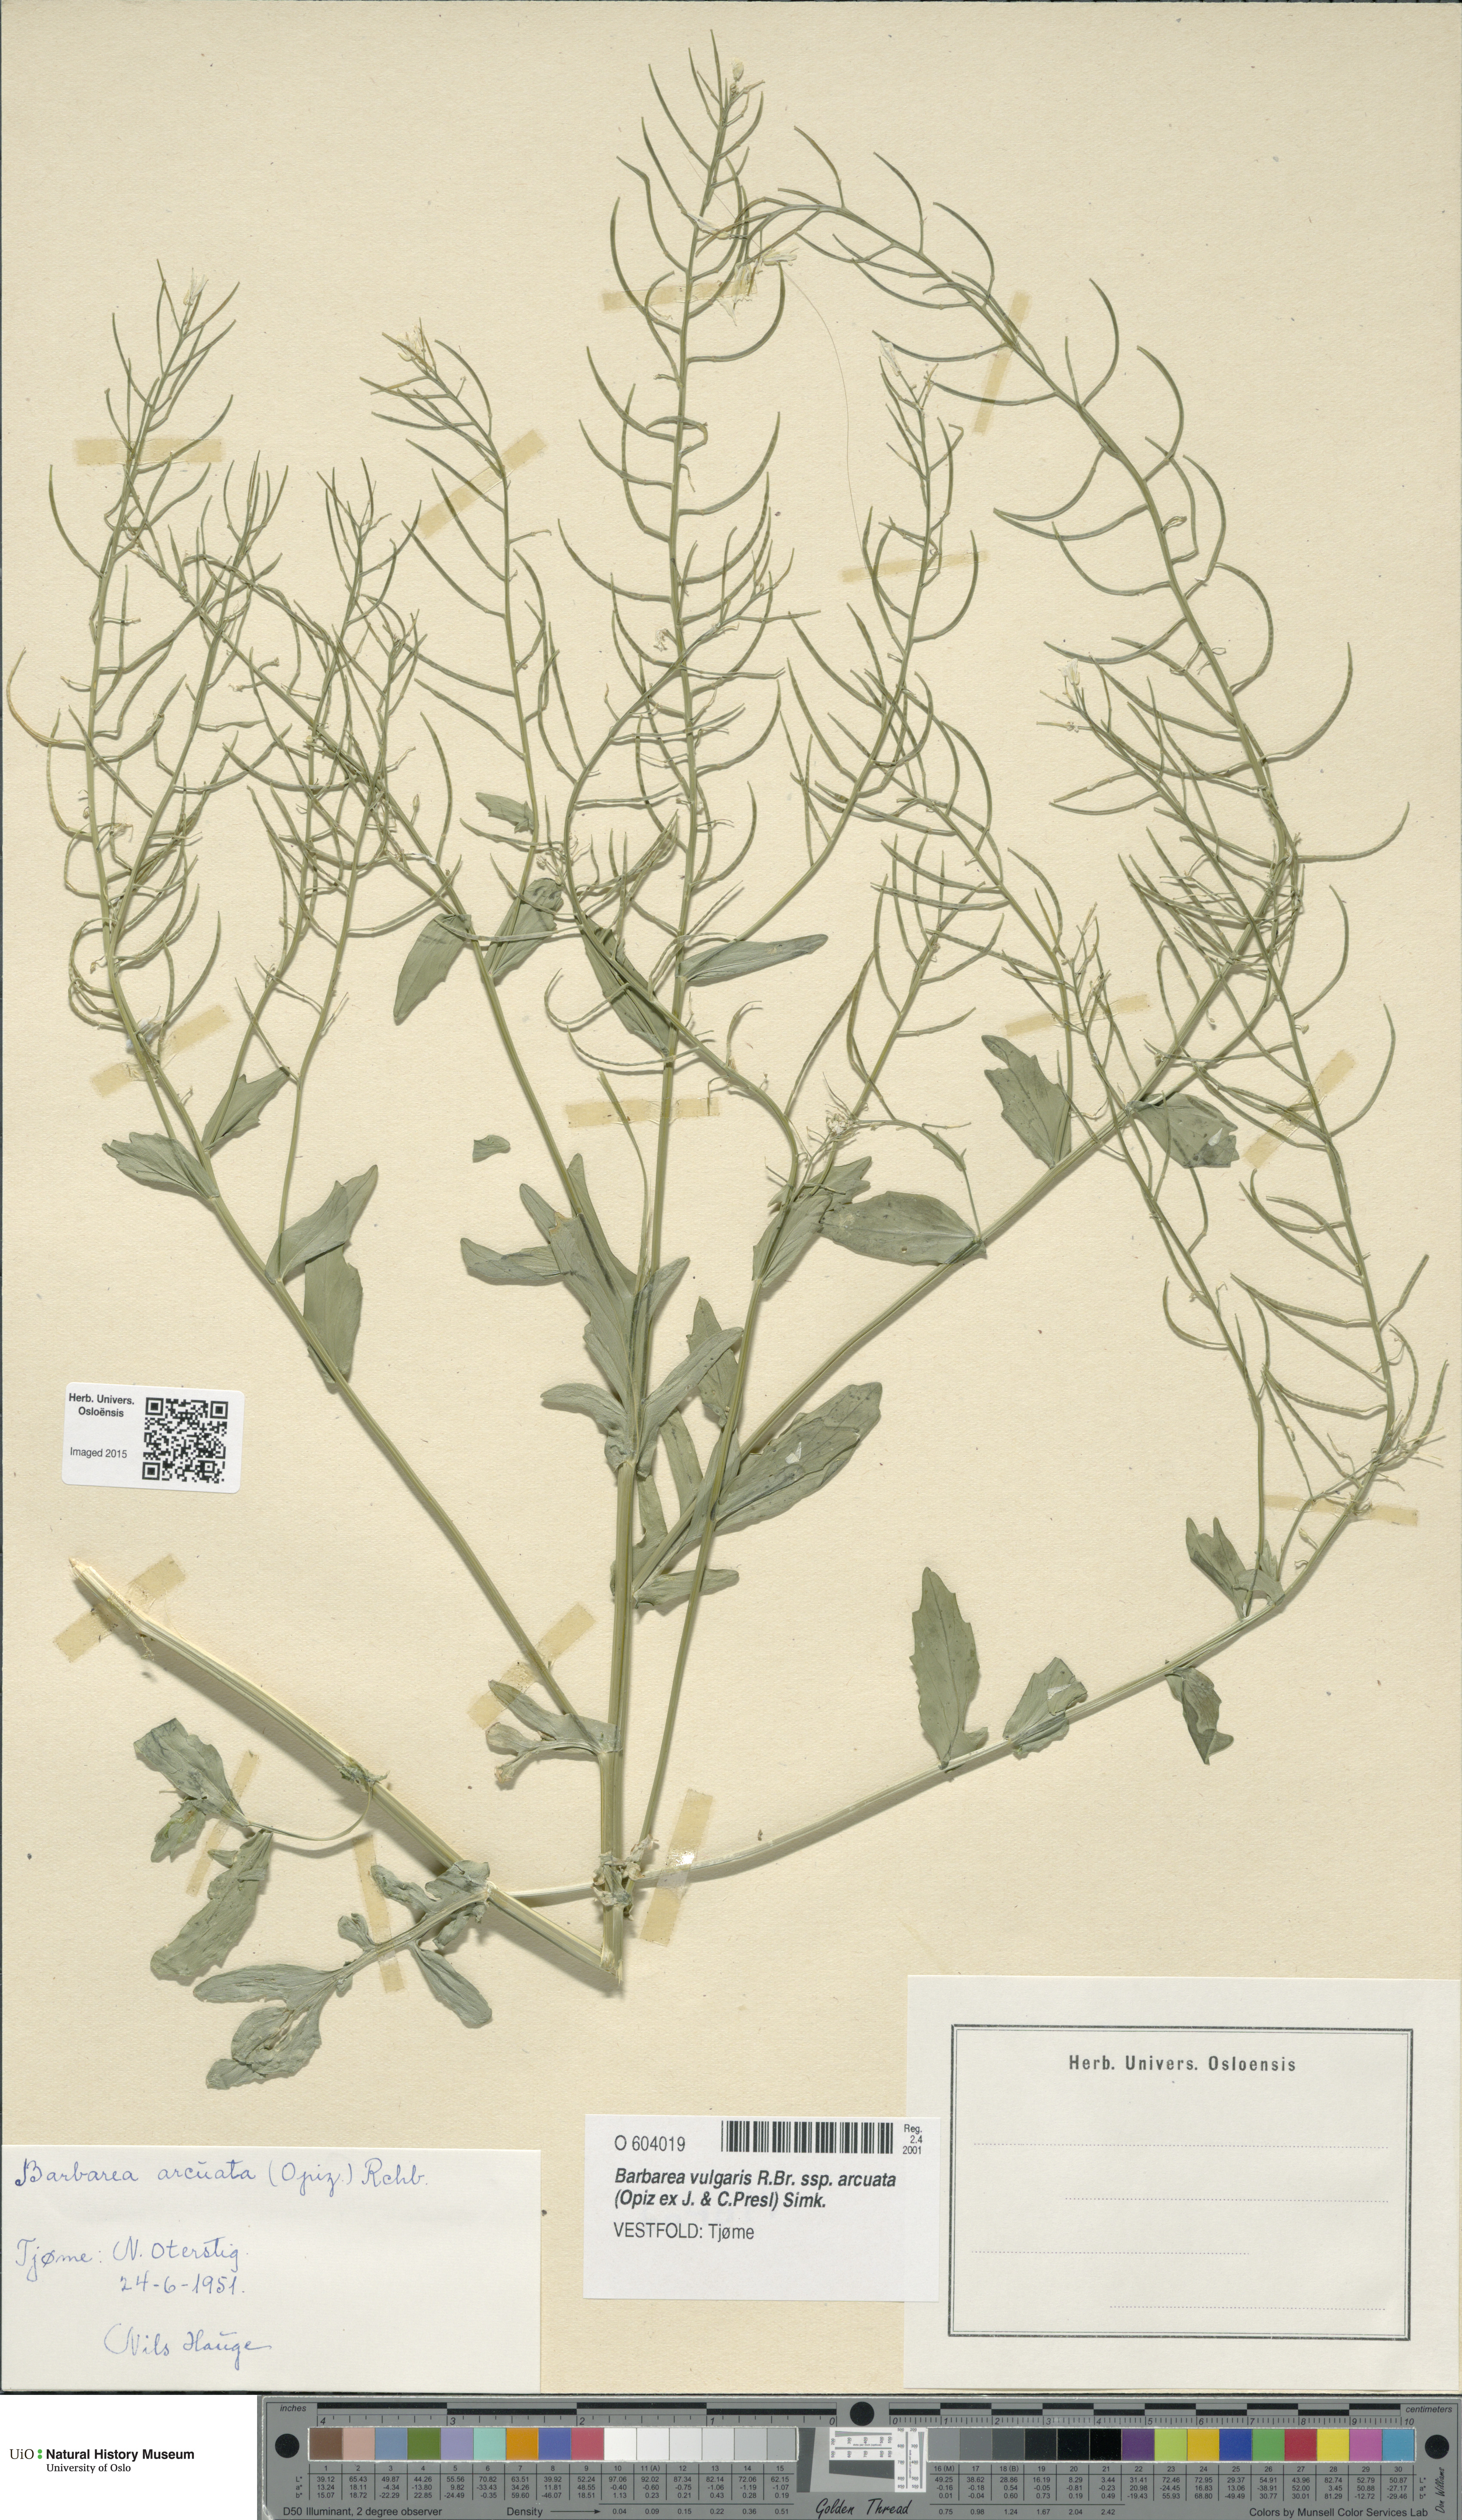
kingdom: Plantae
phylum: Tracheophyta
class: Magnoliopsida
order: Brassicales
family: Brassicaceae
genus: Barbarea
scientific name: Barbarea vulgaris
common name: Cressy-greens
